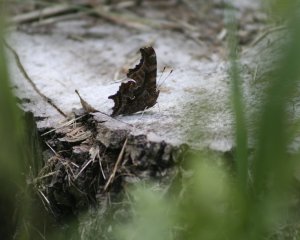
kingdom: Animalia
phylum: Arthropoda
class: Insecta
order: Lepidoptera
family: Nymphalidae
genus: Polygonia
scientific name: Polygonia comma
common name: Eastern Comma
